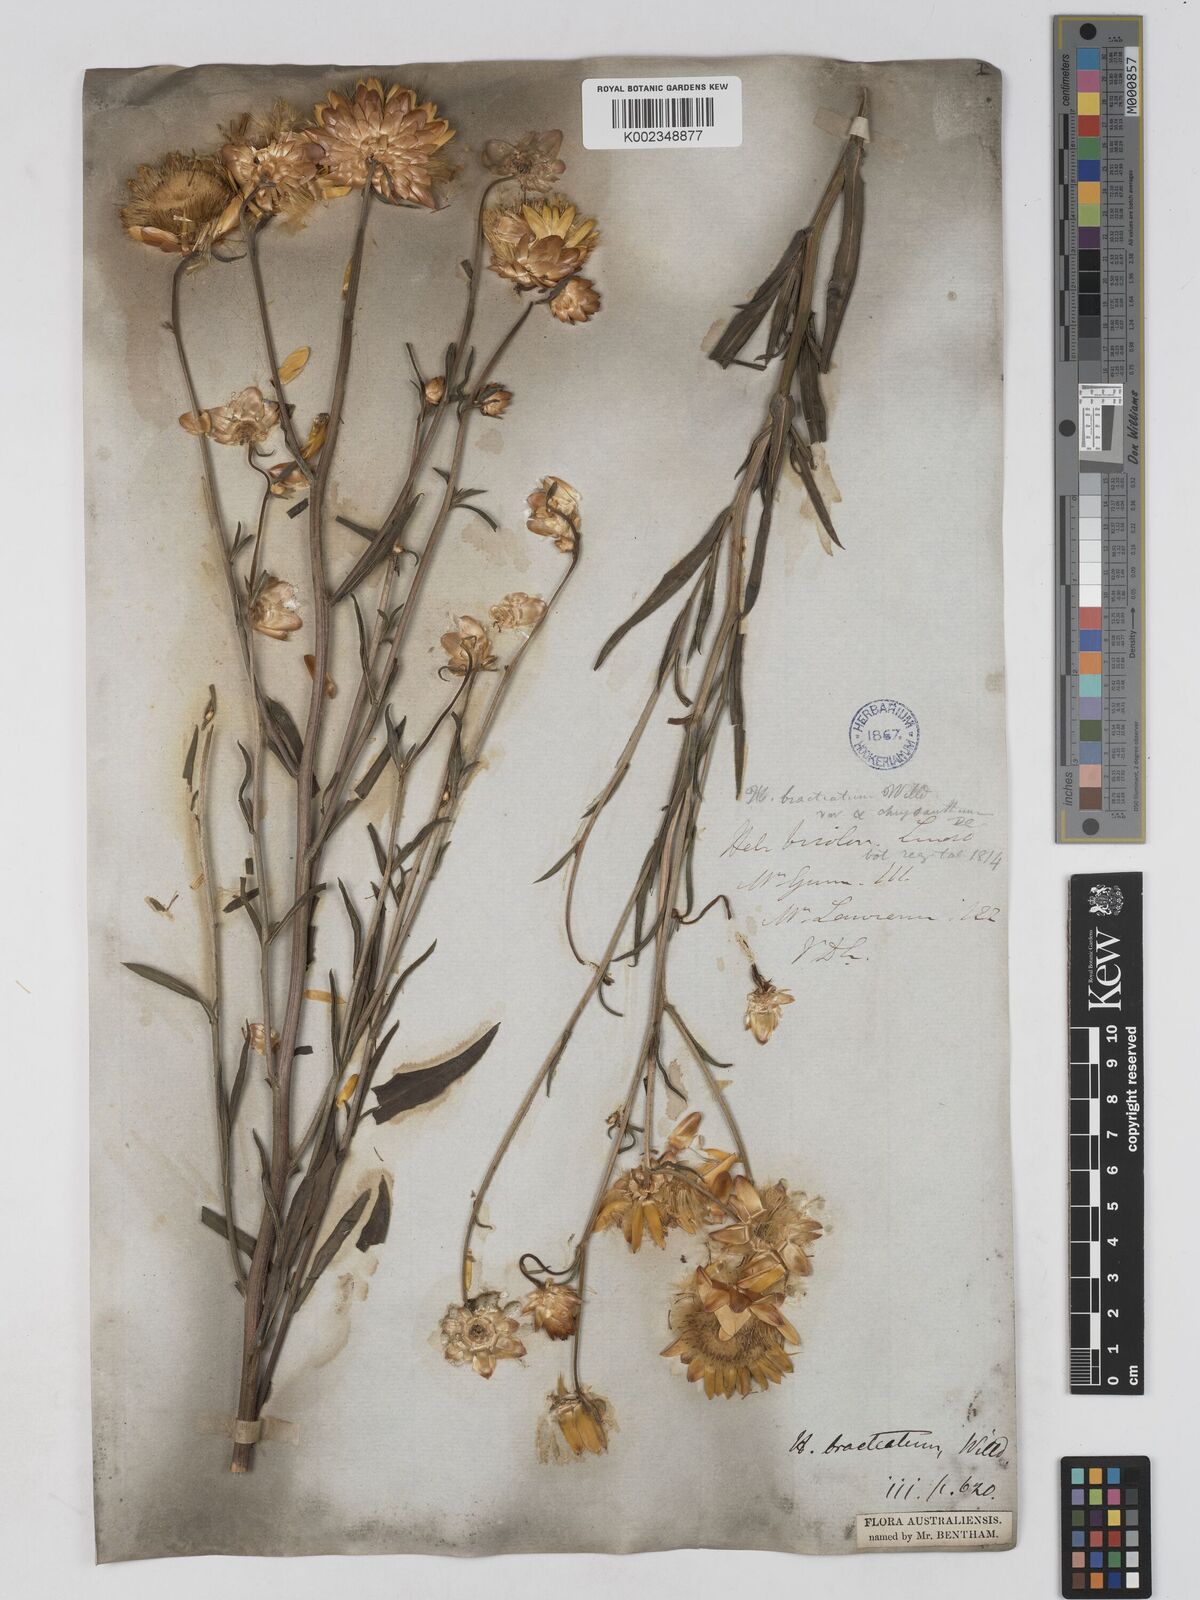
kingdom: Plantae
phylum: Tracheophyta
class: Magnoliopsida
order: Asterales
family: Asteraceae
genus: Xerochrysum
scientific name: Xerochrysum bracteatum
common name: Bracted strawflower
